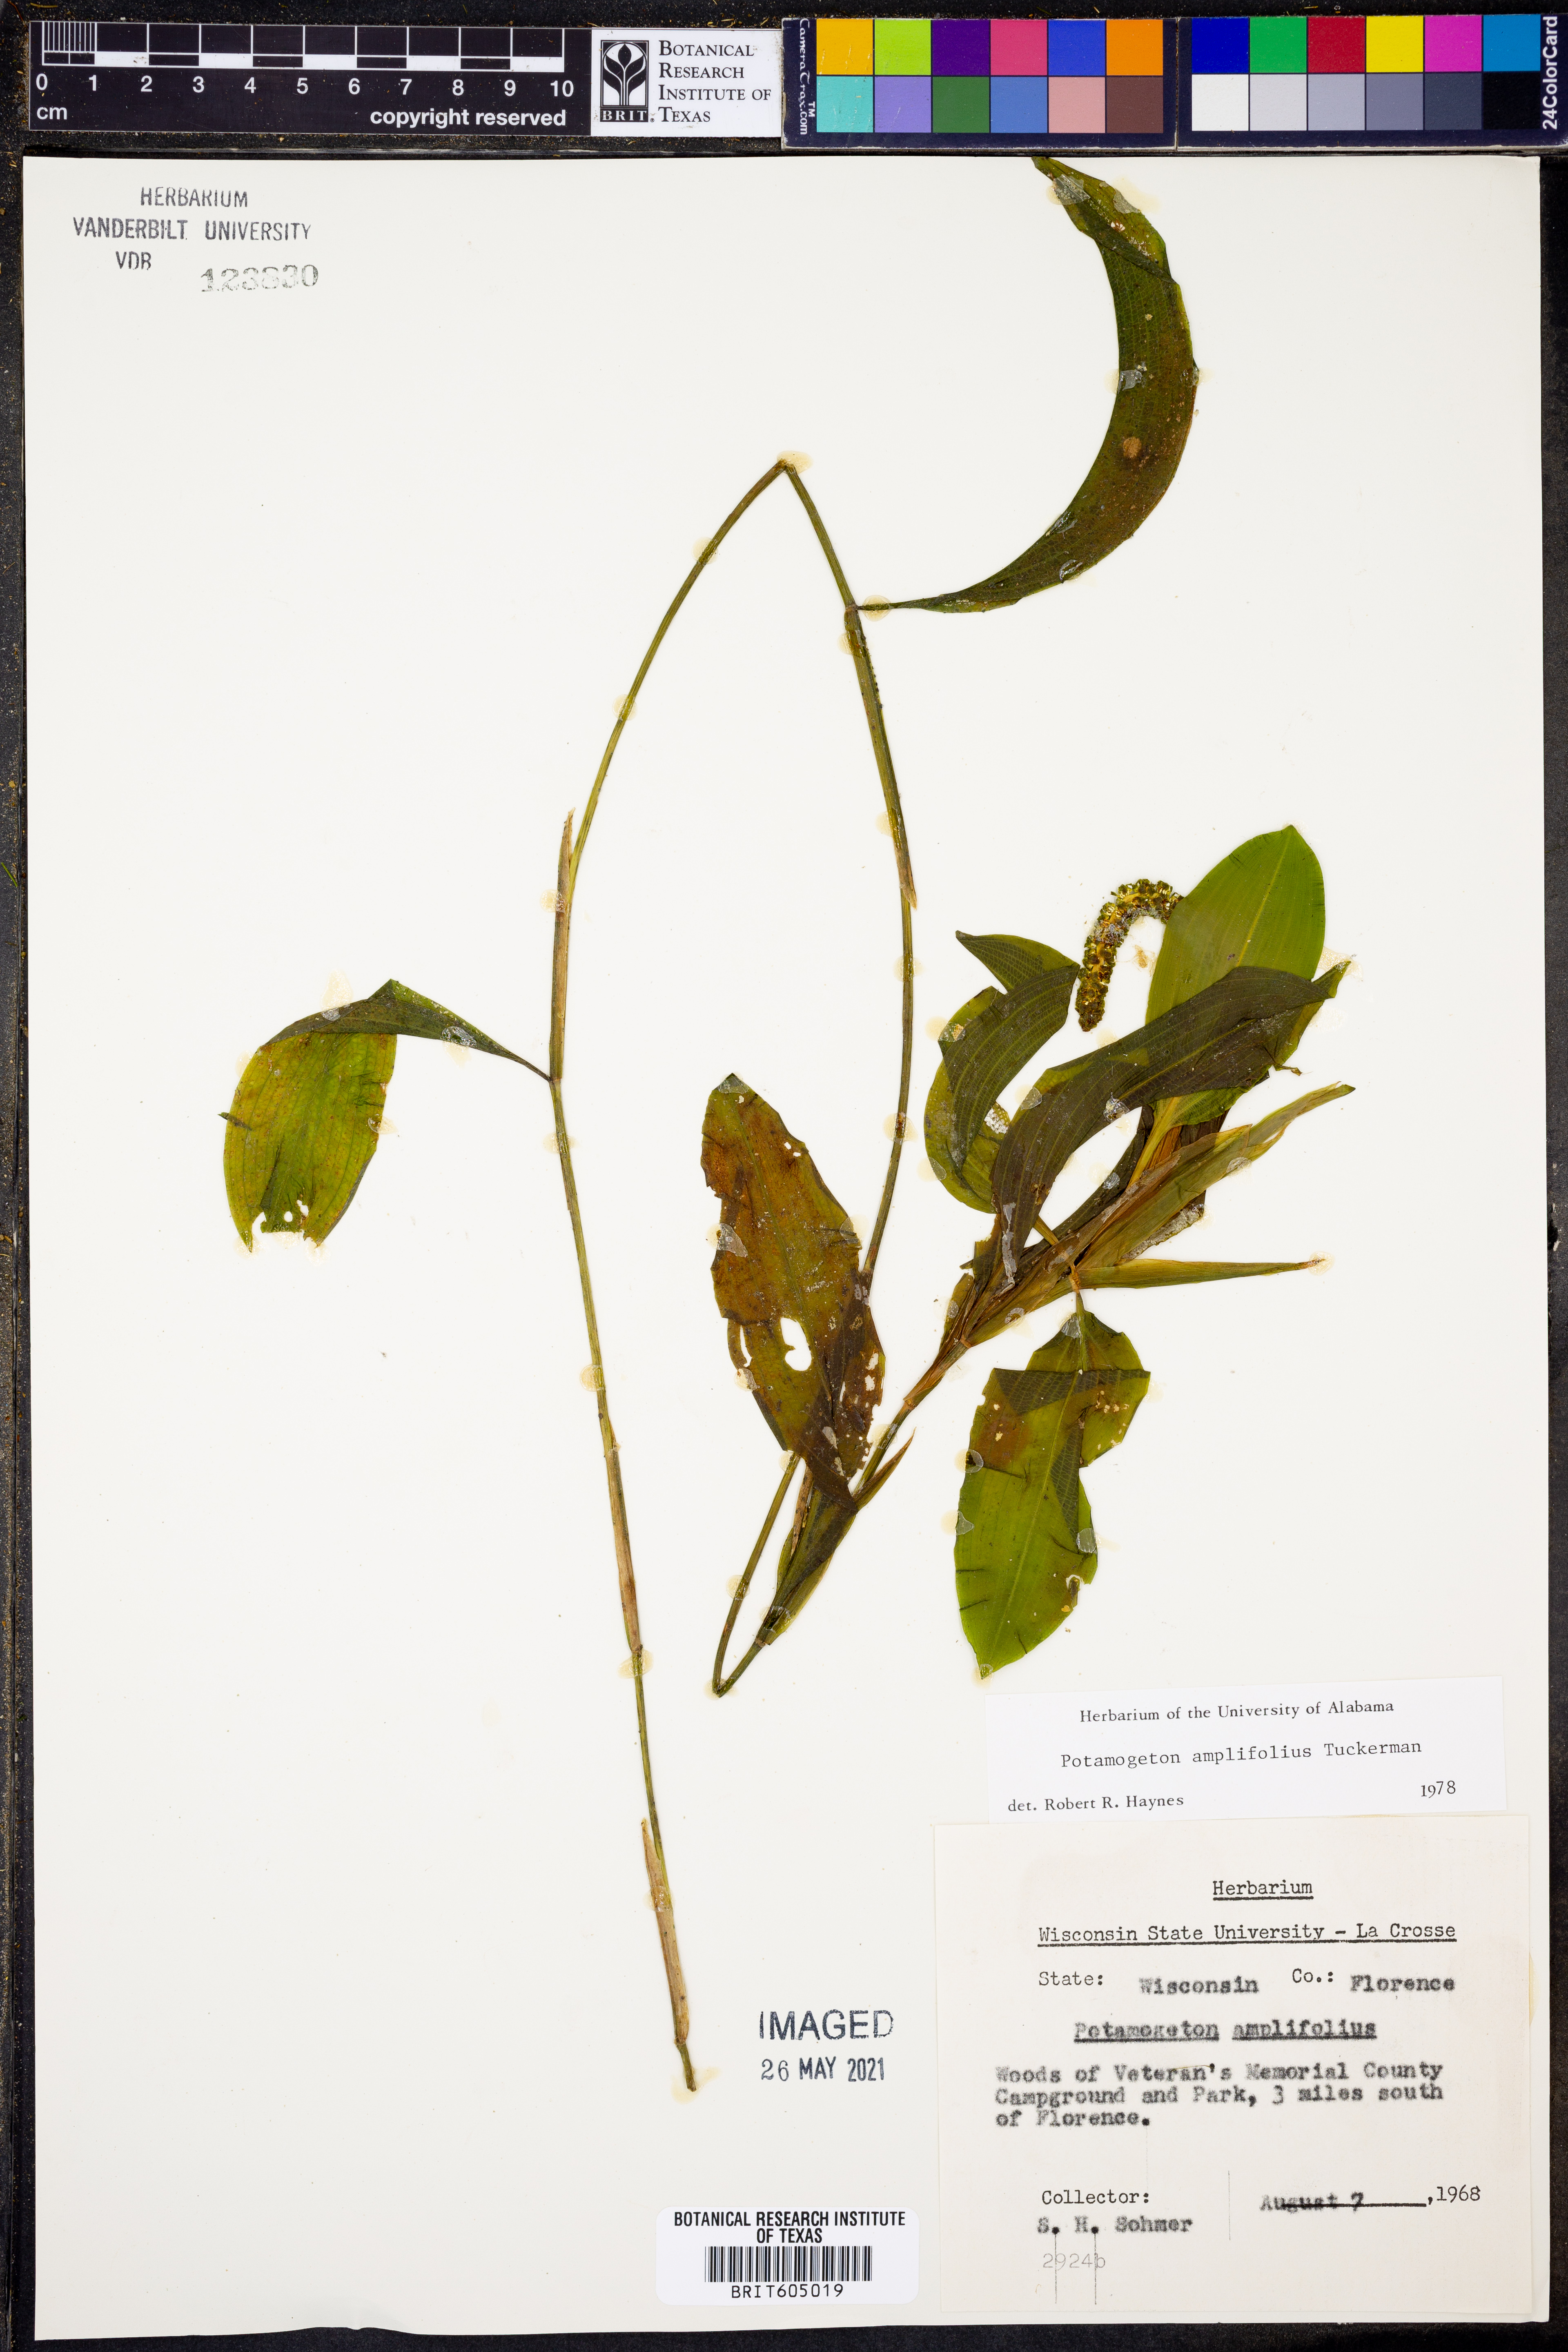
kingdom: Plantae
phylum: Tracheophyta
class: Liliopsida
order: Alismatales
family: Potamogetonaceae
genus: Potamogeton
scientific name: Potamogeton amplifolius
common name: Broad-leaved pondweed
